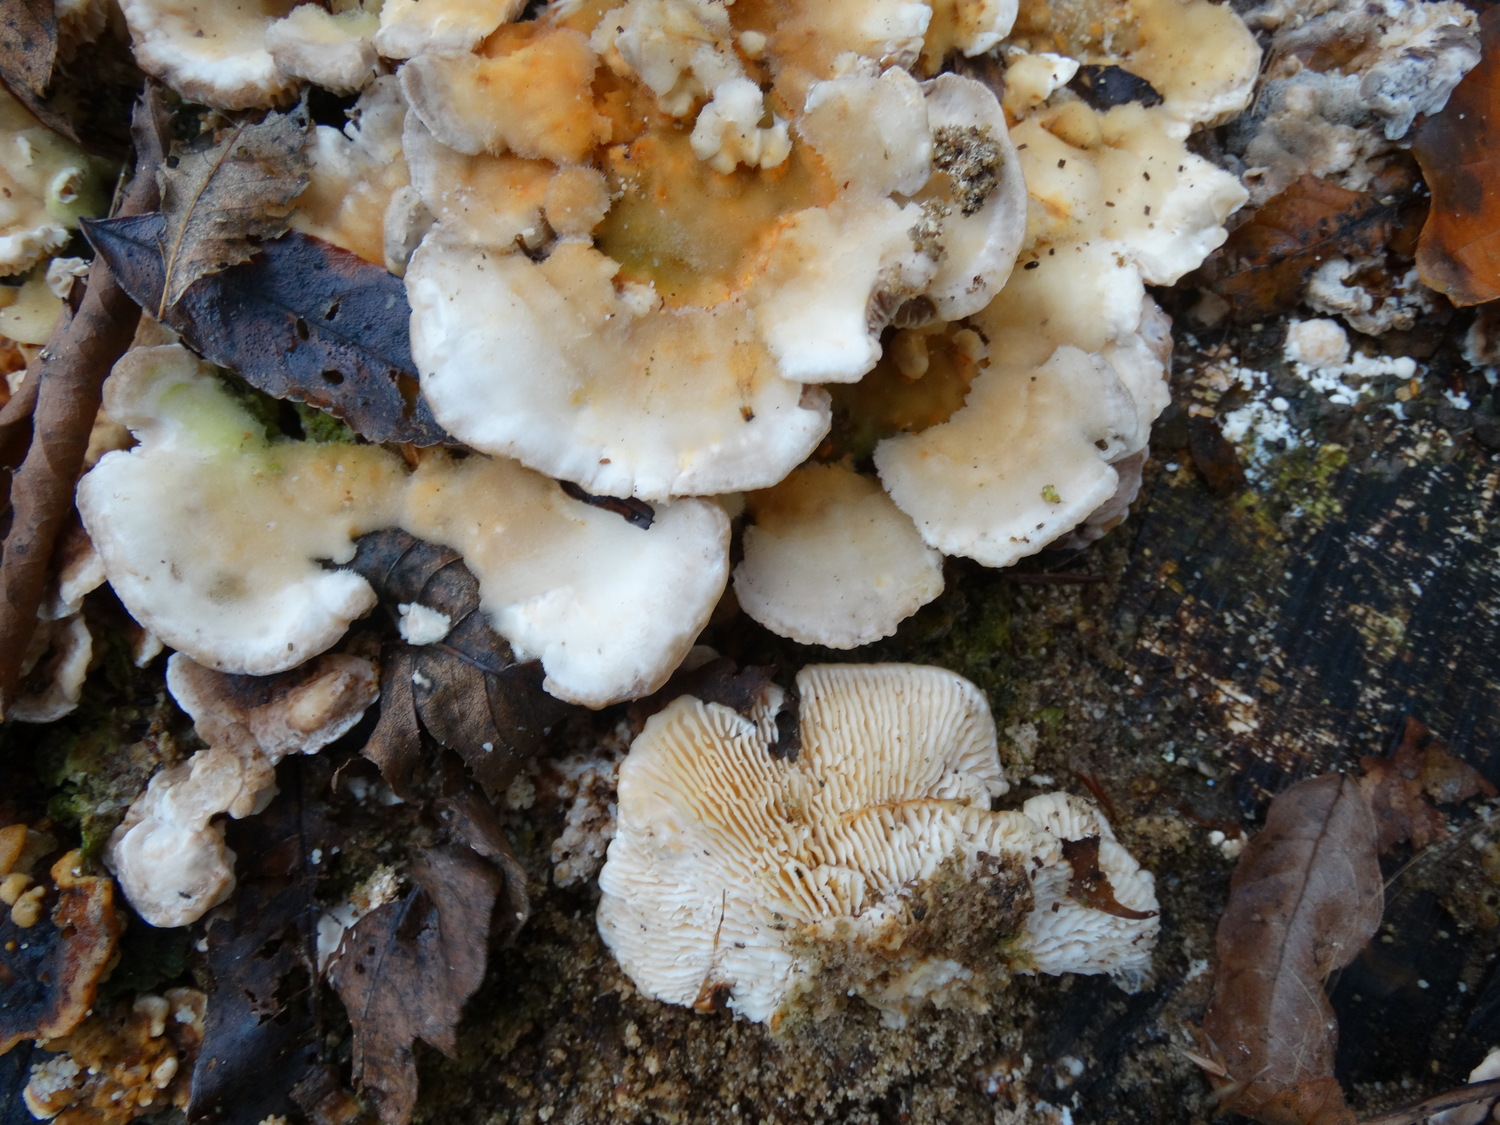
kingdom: Fungi
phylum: Basidiomycota
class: Agaricomycetes
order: Polyporales
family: Polyporaceae
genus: Lenzites
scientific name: Lenzites betulinus
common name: birke-læderporesvamp
